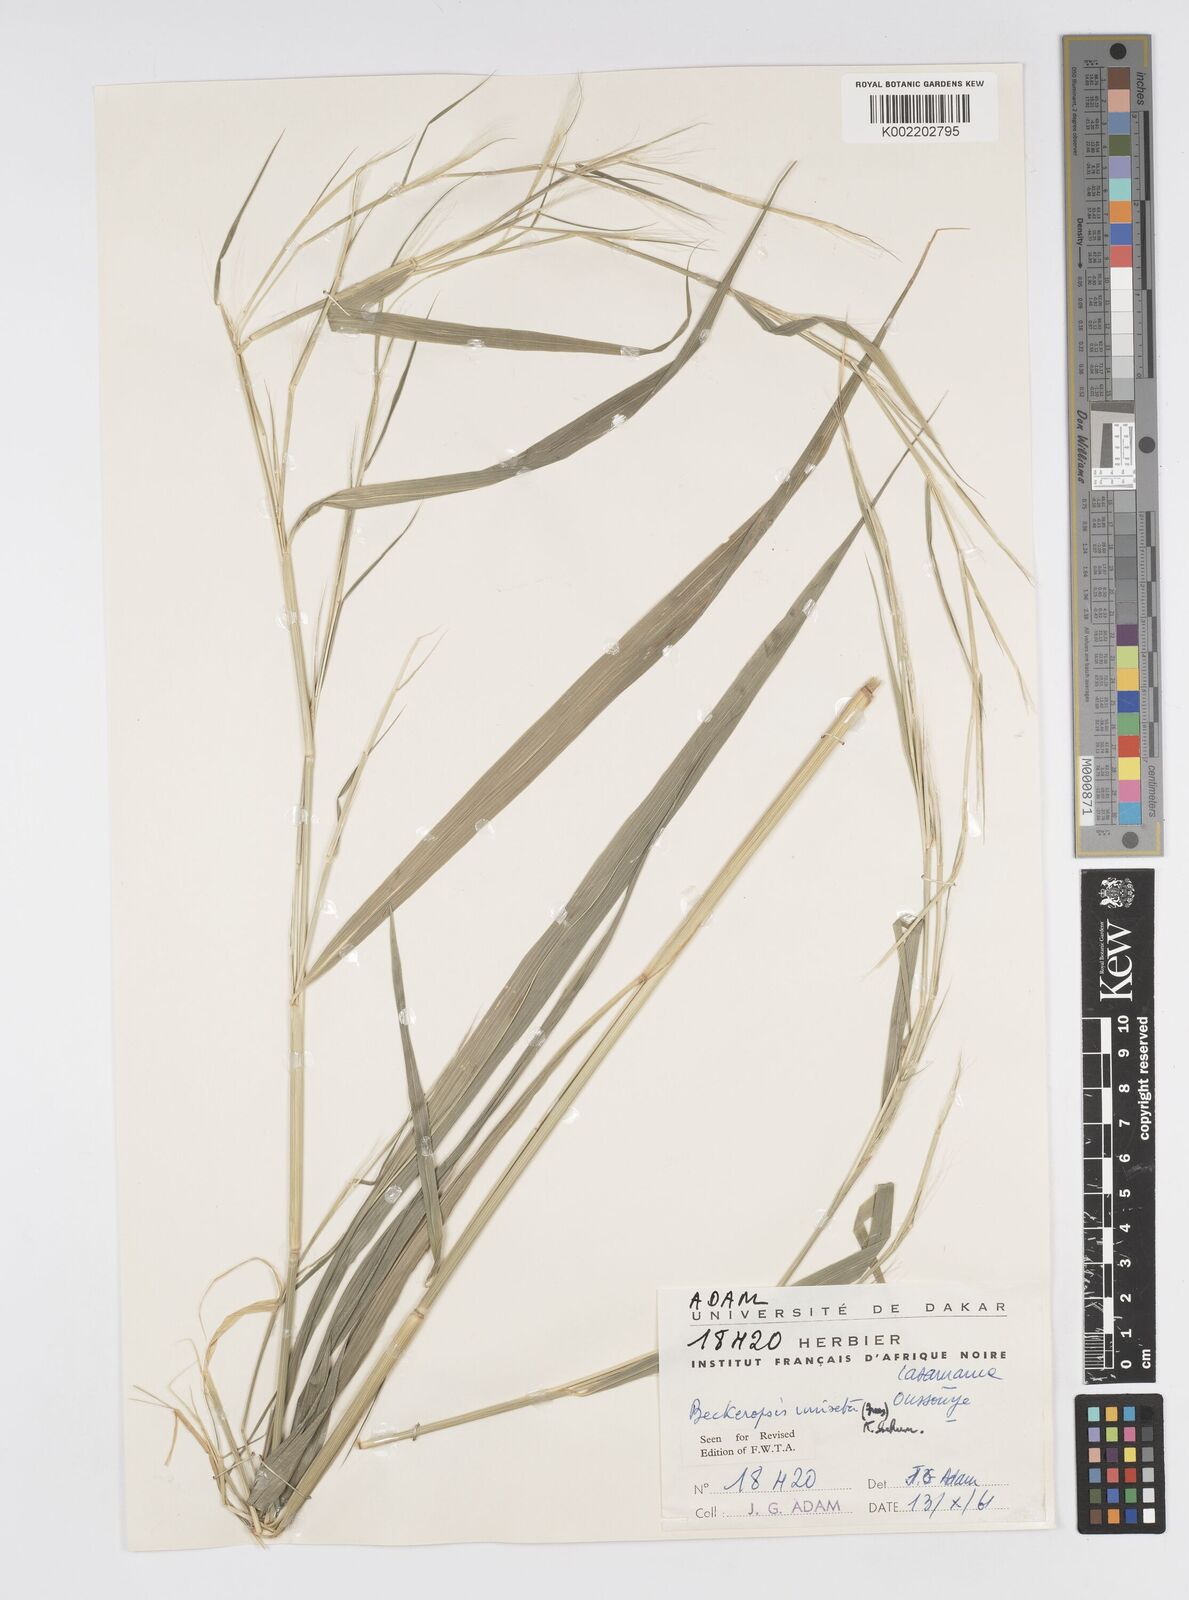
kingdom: Plantae
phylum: Tracheophyta
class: Liliopsida
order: Poales
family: Poaceae
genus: Cenchrus
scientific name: Cenchrus unisetus
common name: Natal grass
